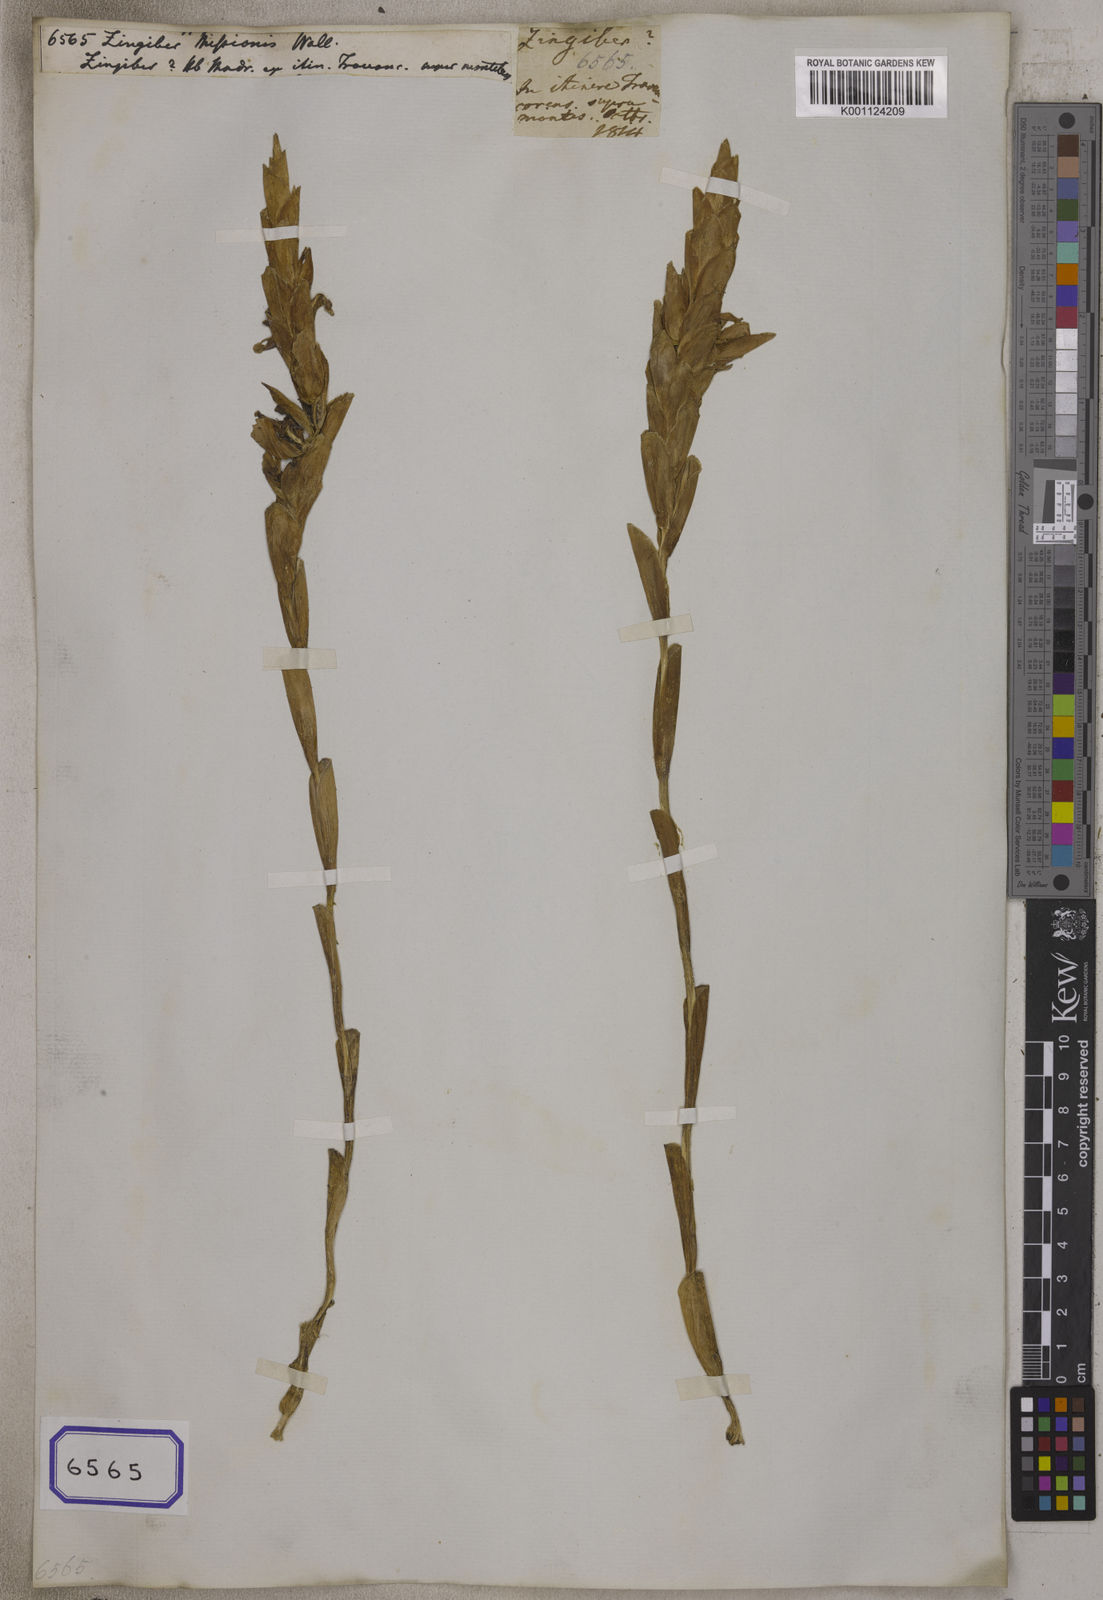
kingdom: Plantae
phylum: Tracheophyta
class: Liliopsida
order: Zingiberales
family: Zingiberaceae
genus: Zingiber
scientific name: Zingiber officinale
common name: Ginger
